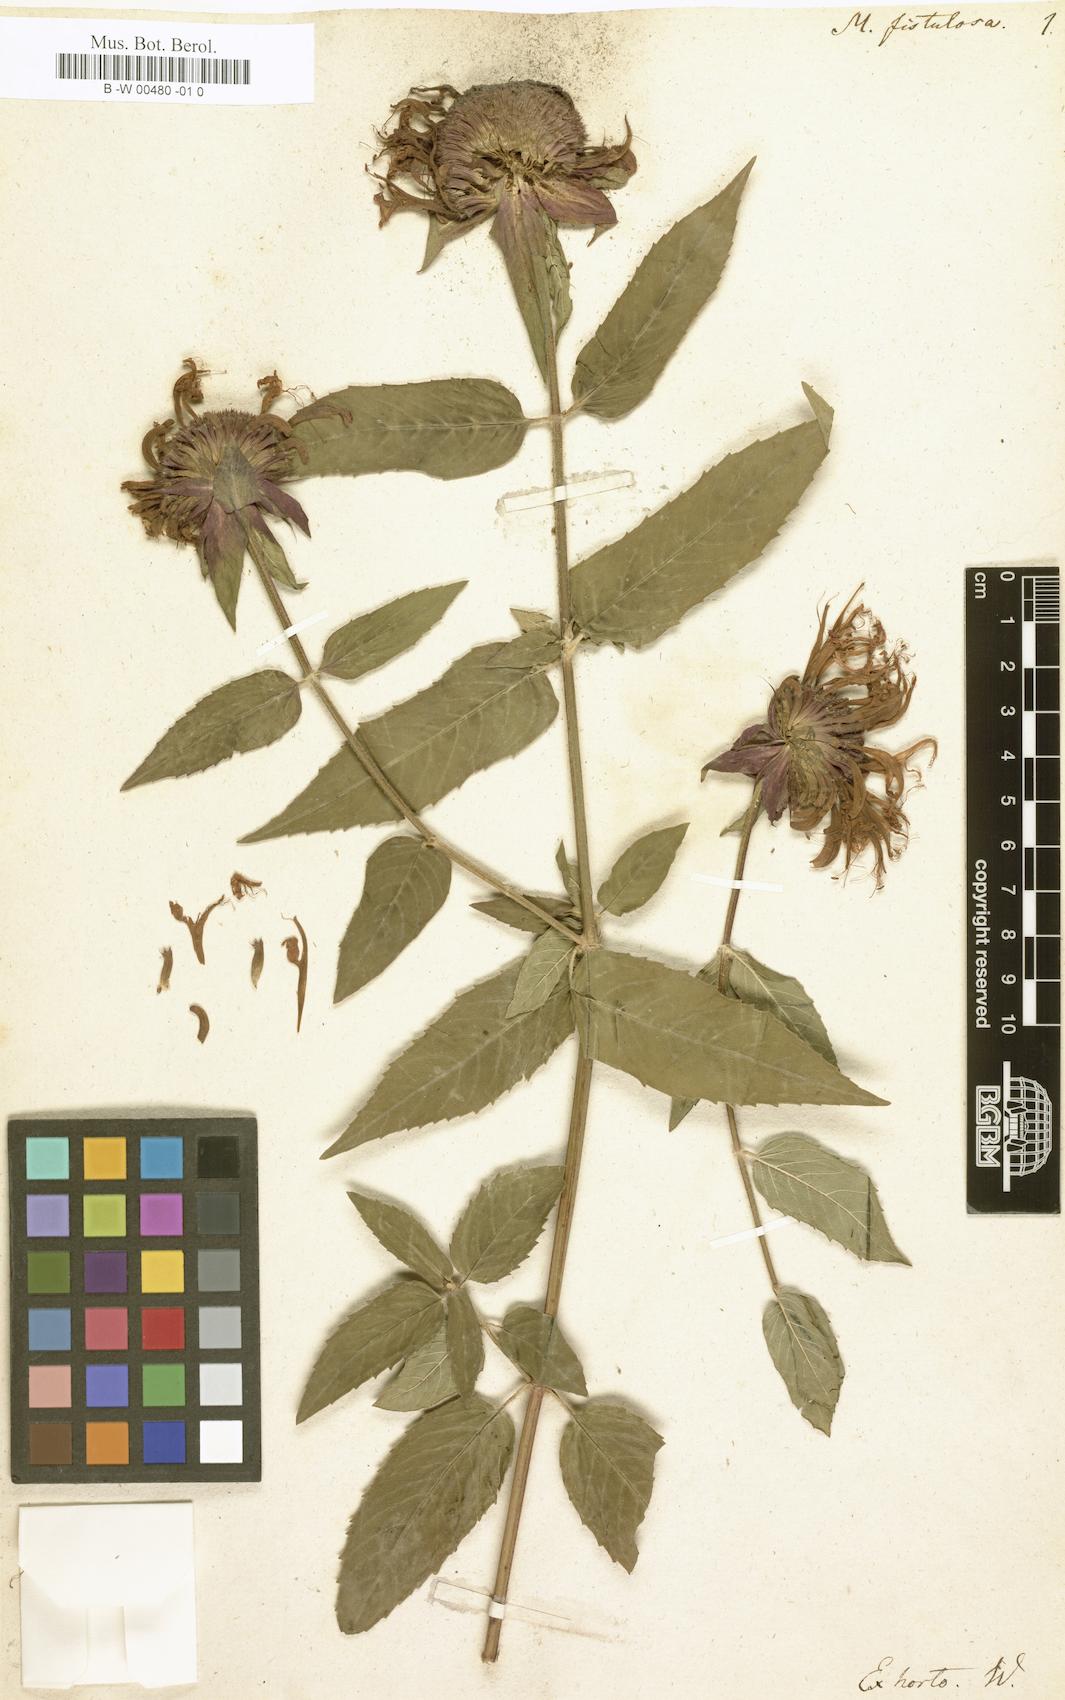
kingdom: Plantae
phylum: Tracheophyta
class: Magnoliopsida
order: Lamiales
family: Lamiaceae
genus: Monarda
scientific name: Monarda fistulosa
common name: Purple beebalm
